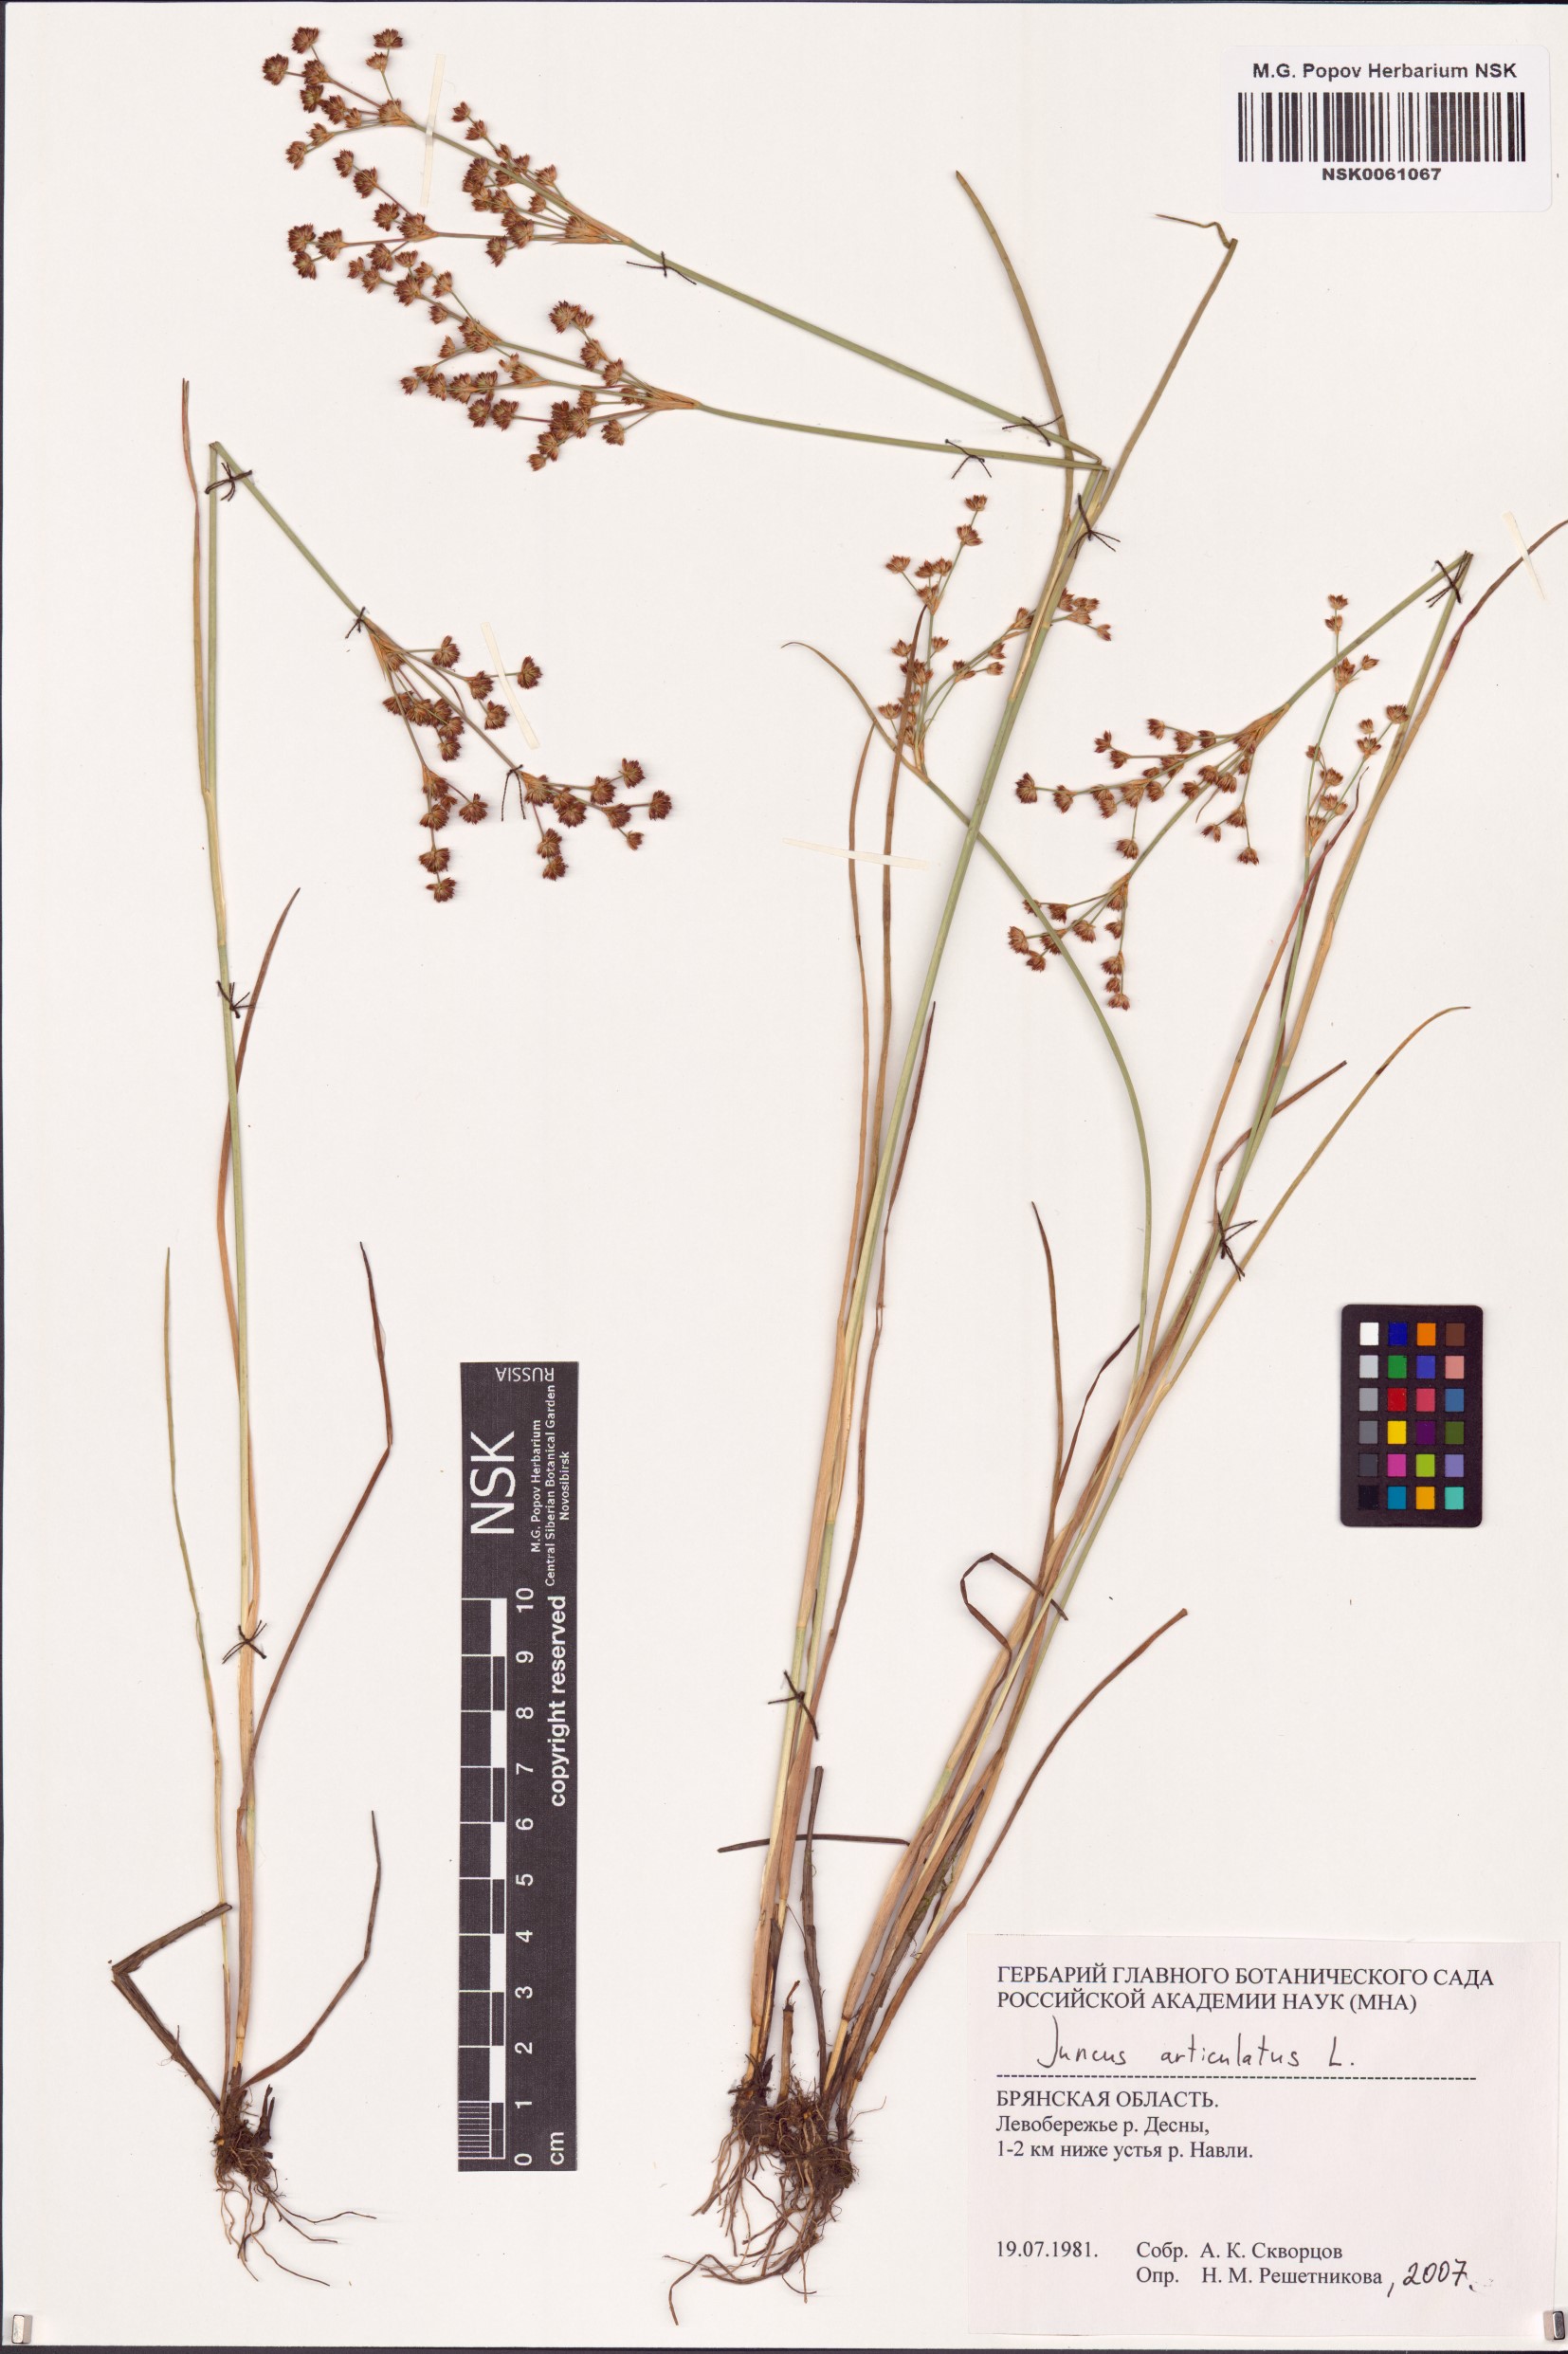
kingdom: Plantae
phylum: Tracheophyta
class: Liliopsida
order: Poales
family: Juncaceae
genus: Juncus
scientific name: Juncus articulatus
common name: Jointed rush
